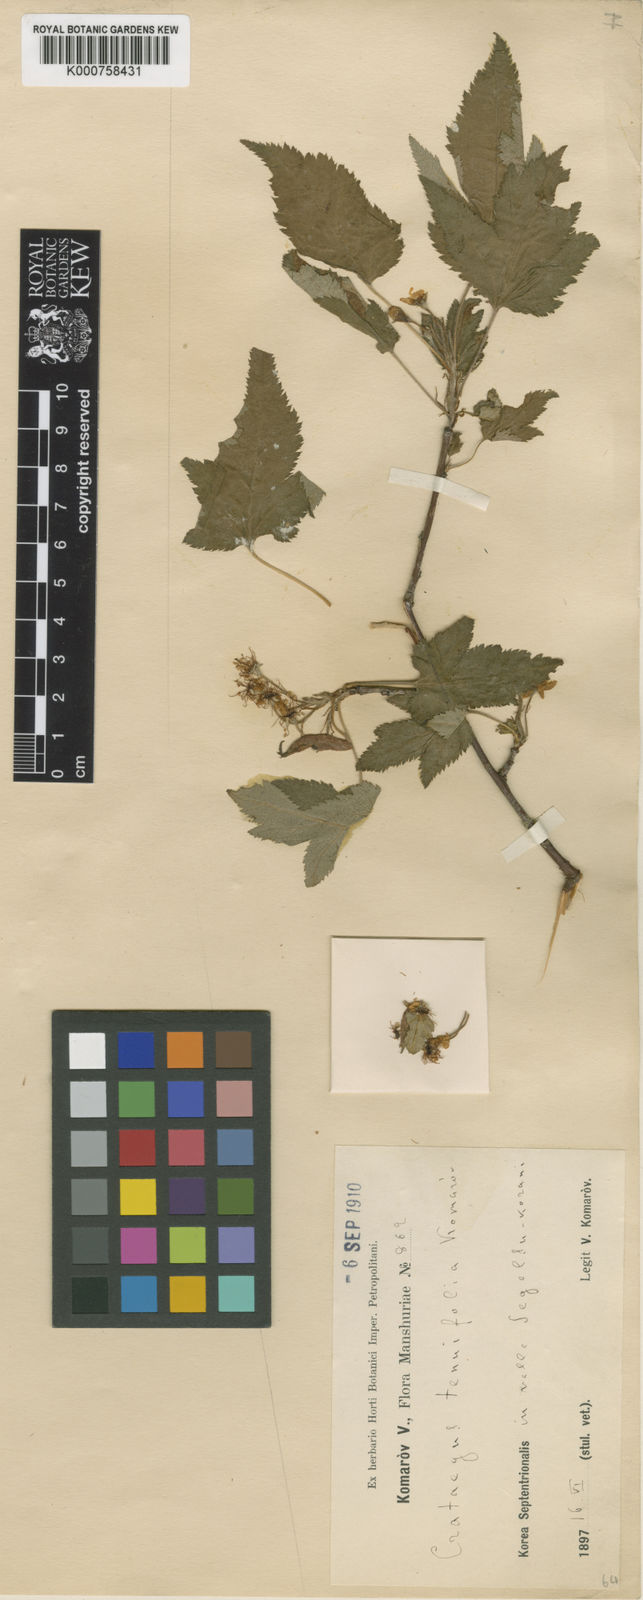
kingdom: Plantae
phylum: Tracheophyta
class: Magnoliopsida
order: Rosales
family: Rosaceae
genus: Malus
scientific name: Malus komarovii
